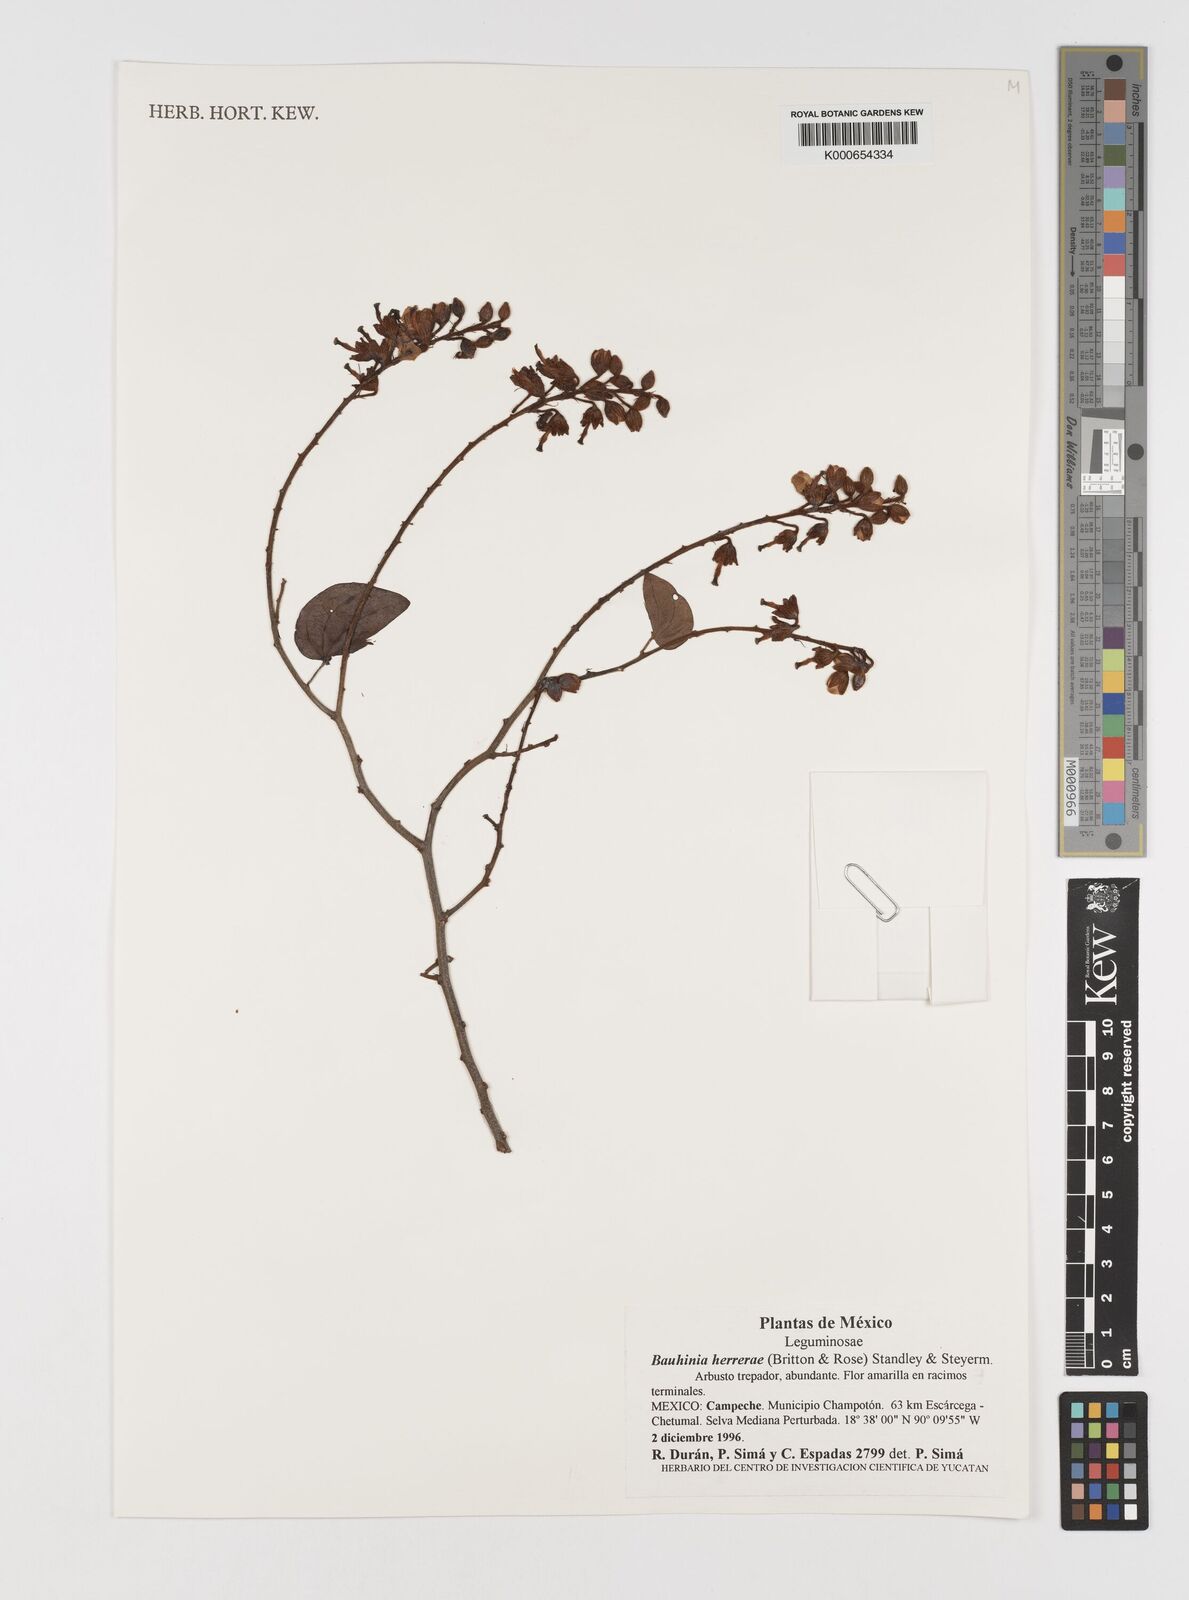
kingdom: Plantae
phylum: Tracheophyta
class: Magnoliopsida
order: Fabales
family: Fabaceae
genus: Schnella
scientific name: Schnella herrerae
